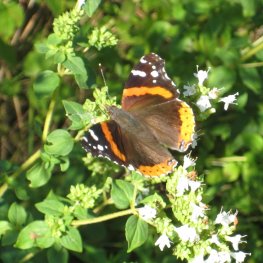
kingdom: Animalia
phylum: Arthropoda
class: Insecta
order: Lepidoptera
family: Nymphalidae
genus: Vanessa
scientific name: Vanessa atalanta
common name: Red Admiral
